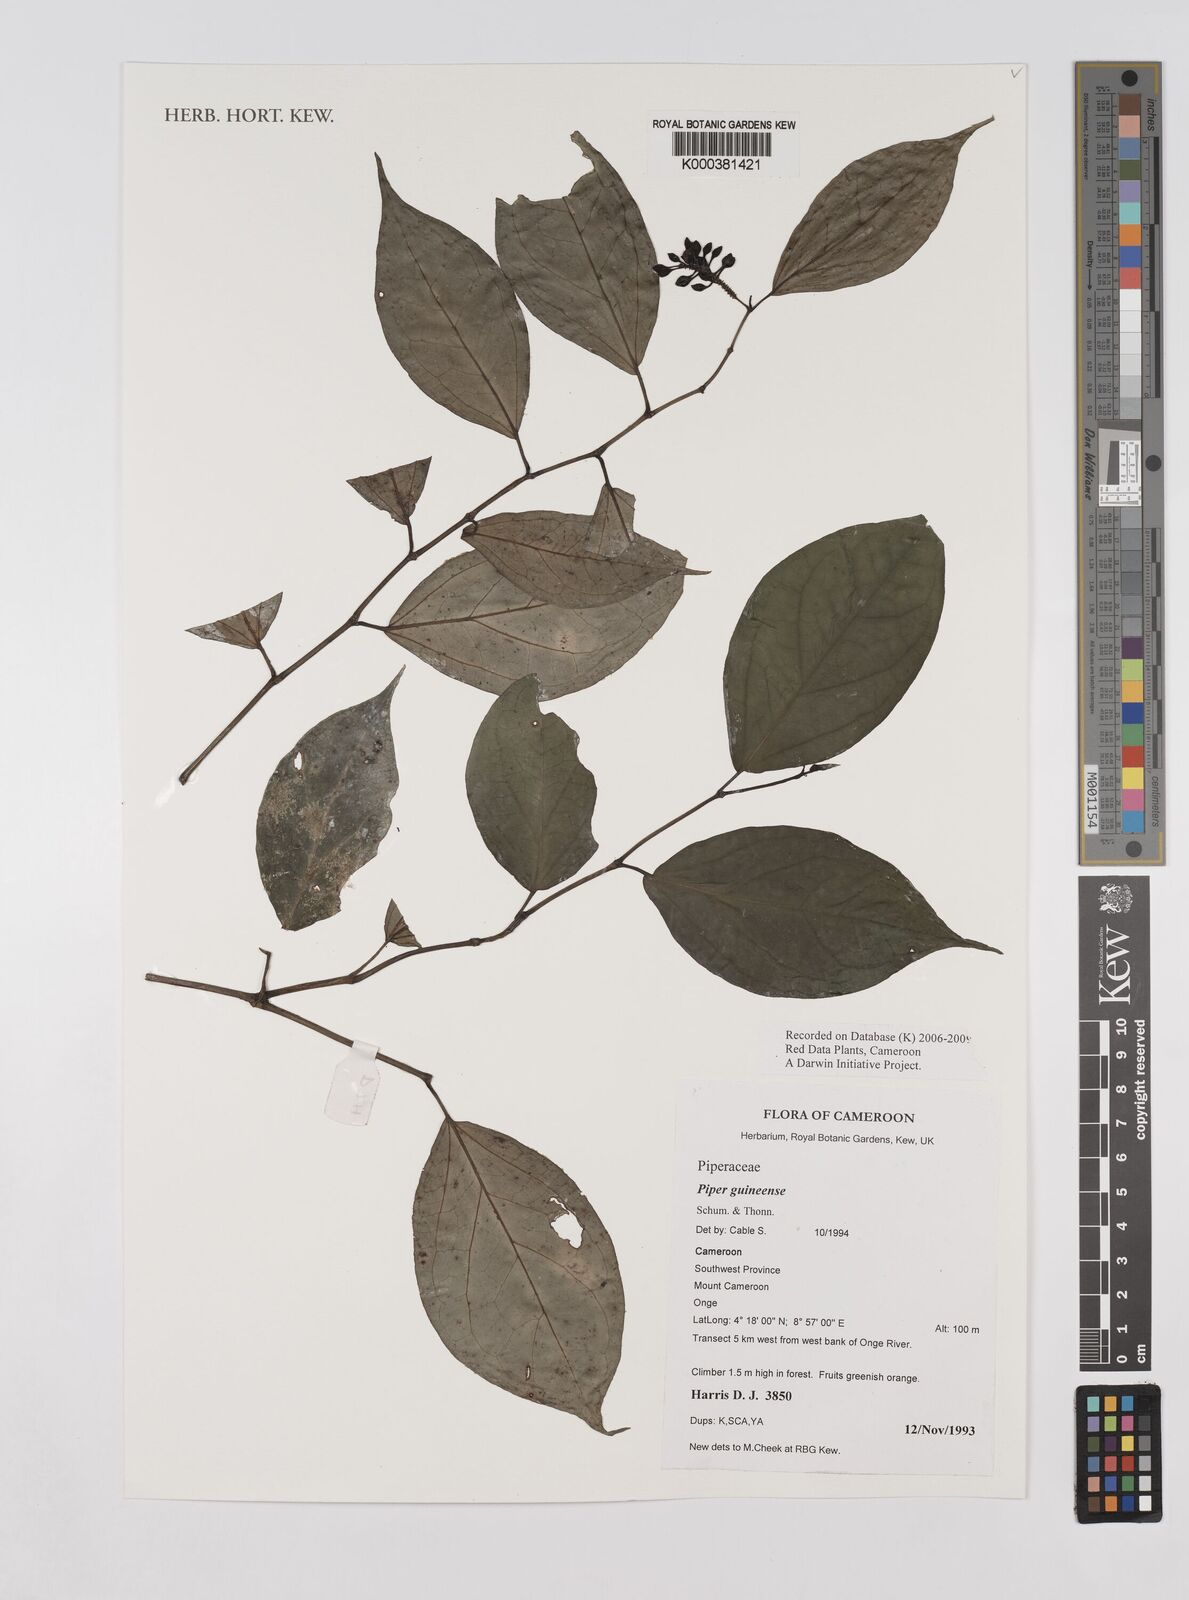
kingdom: Plantae
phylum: Tracheophyta
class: Magnoliopsida
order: Piperales
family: Piperaceae
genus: Piper
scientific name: Piper guineense
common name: Benin pepper
